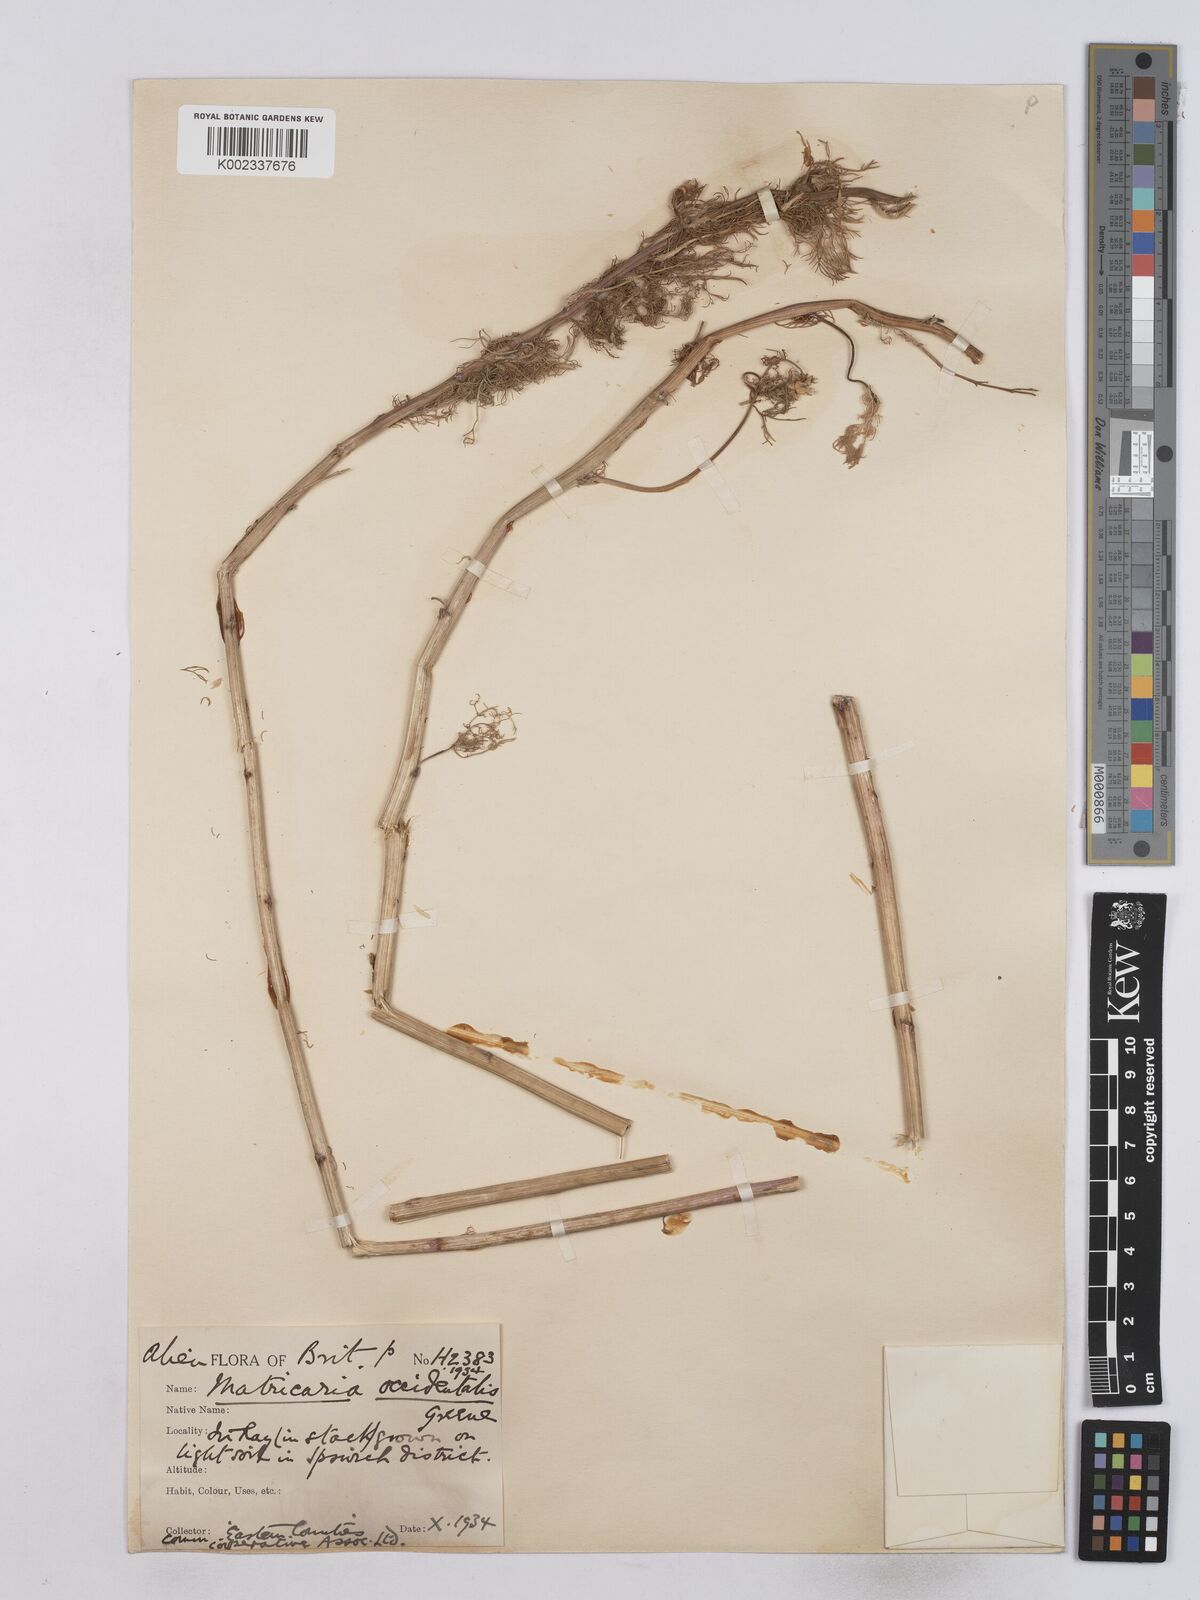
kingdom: Plantae
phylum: Tracheophyta
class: Magnoliopsida
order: Asterales
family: Asteraceae
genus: Matricaria
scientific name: Matricaria occidentalis
